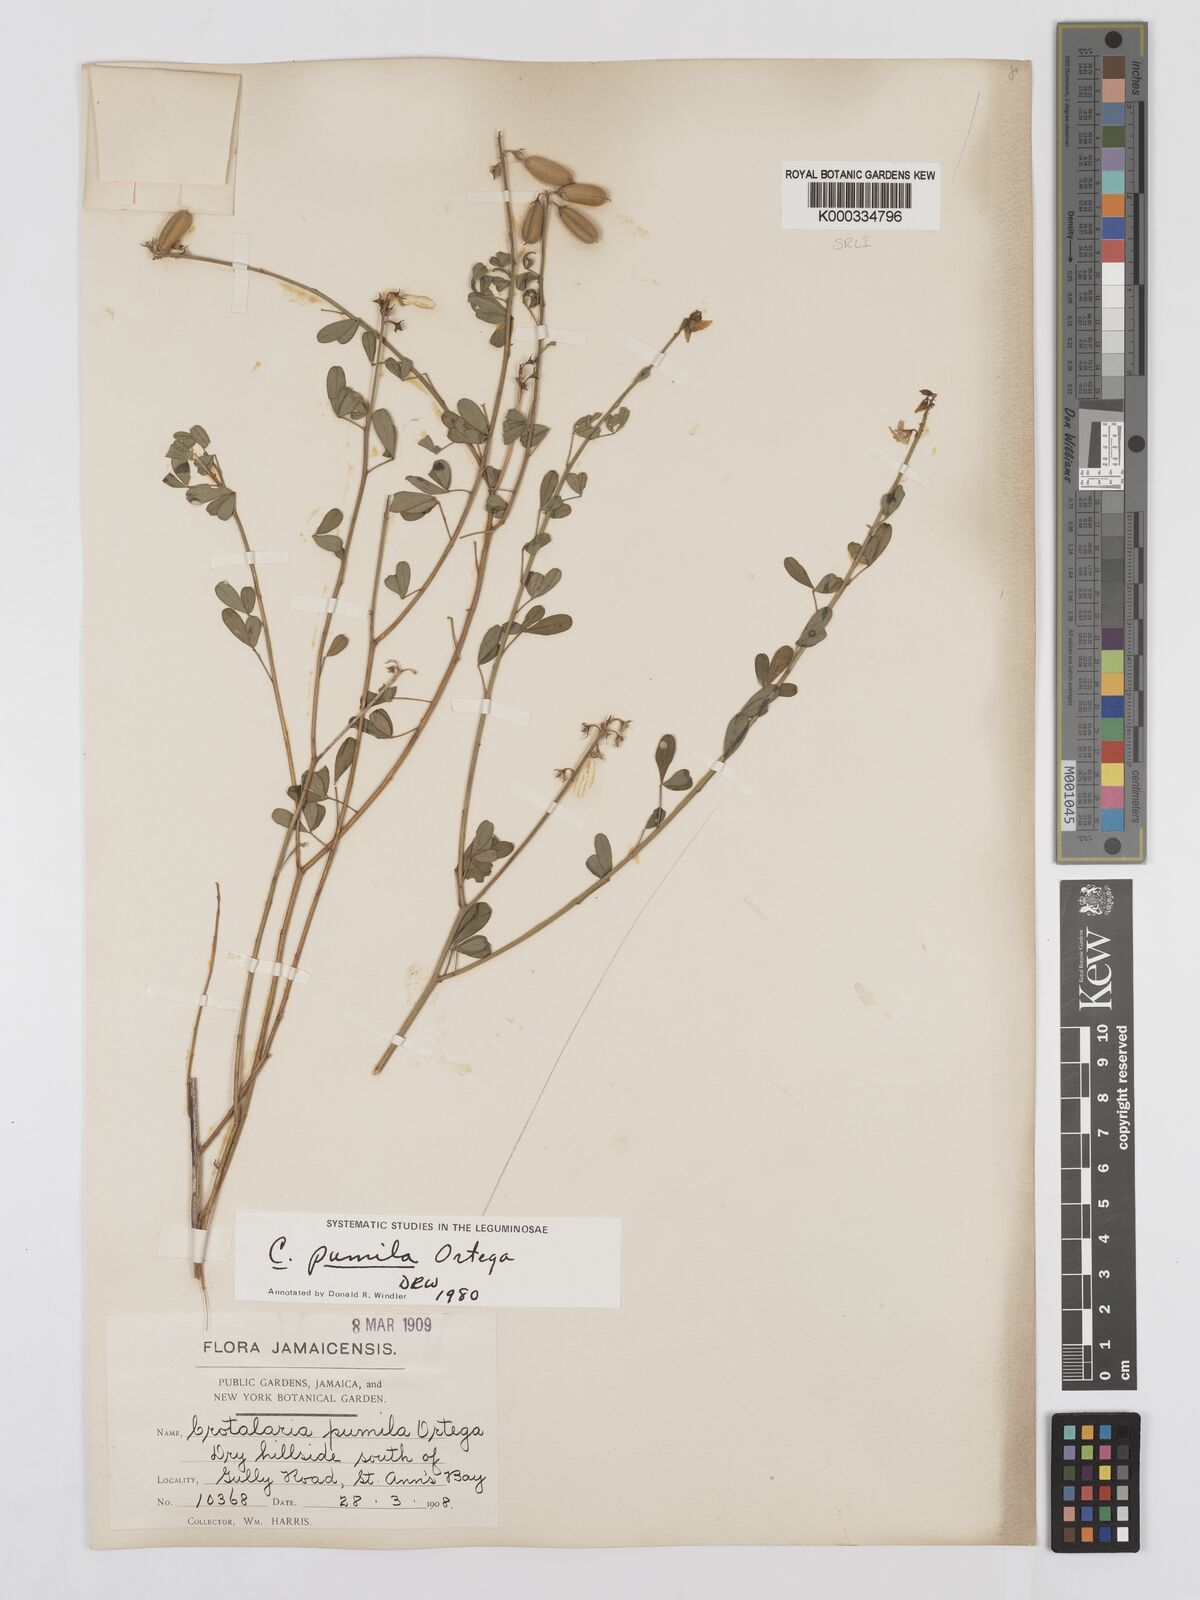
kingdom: Plantae
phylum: Tracheophyta
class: Magnoliopsida
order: Fabales
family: Fabaceae
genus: Crotalaria
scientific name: Crotalaria pumila
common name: Low rattlebox
